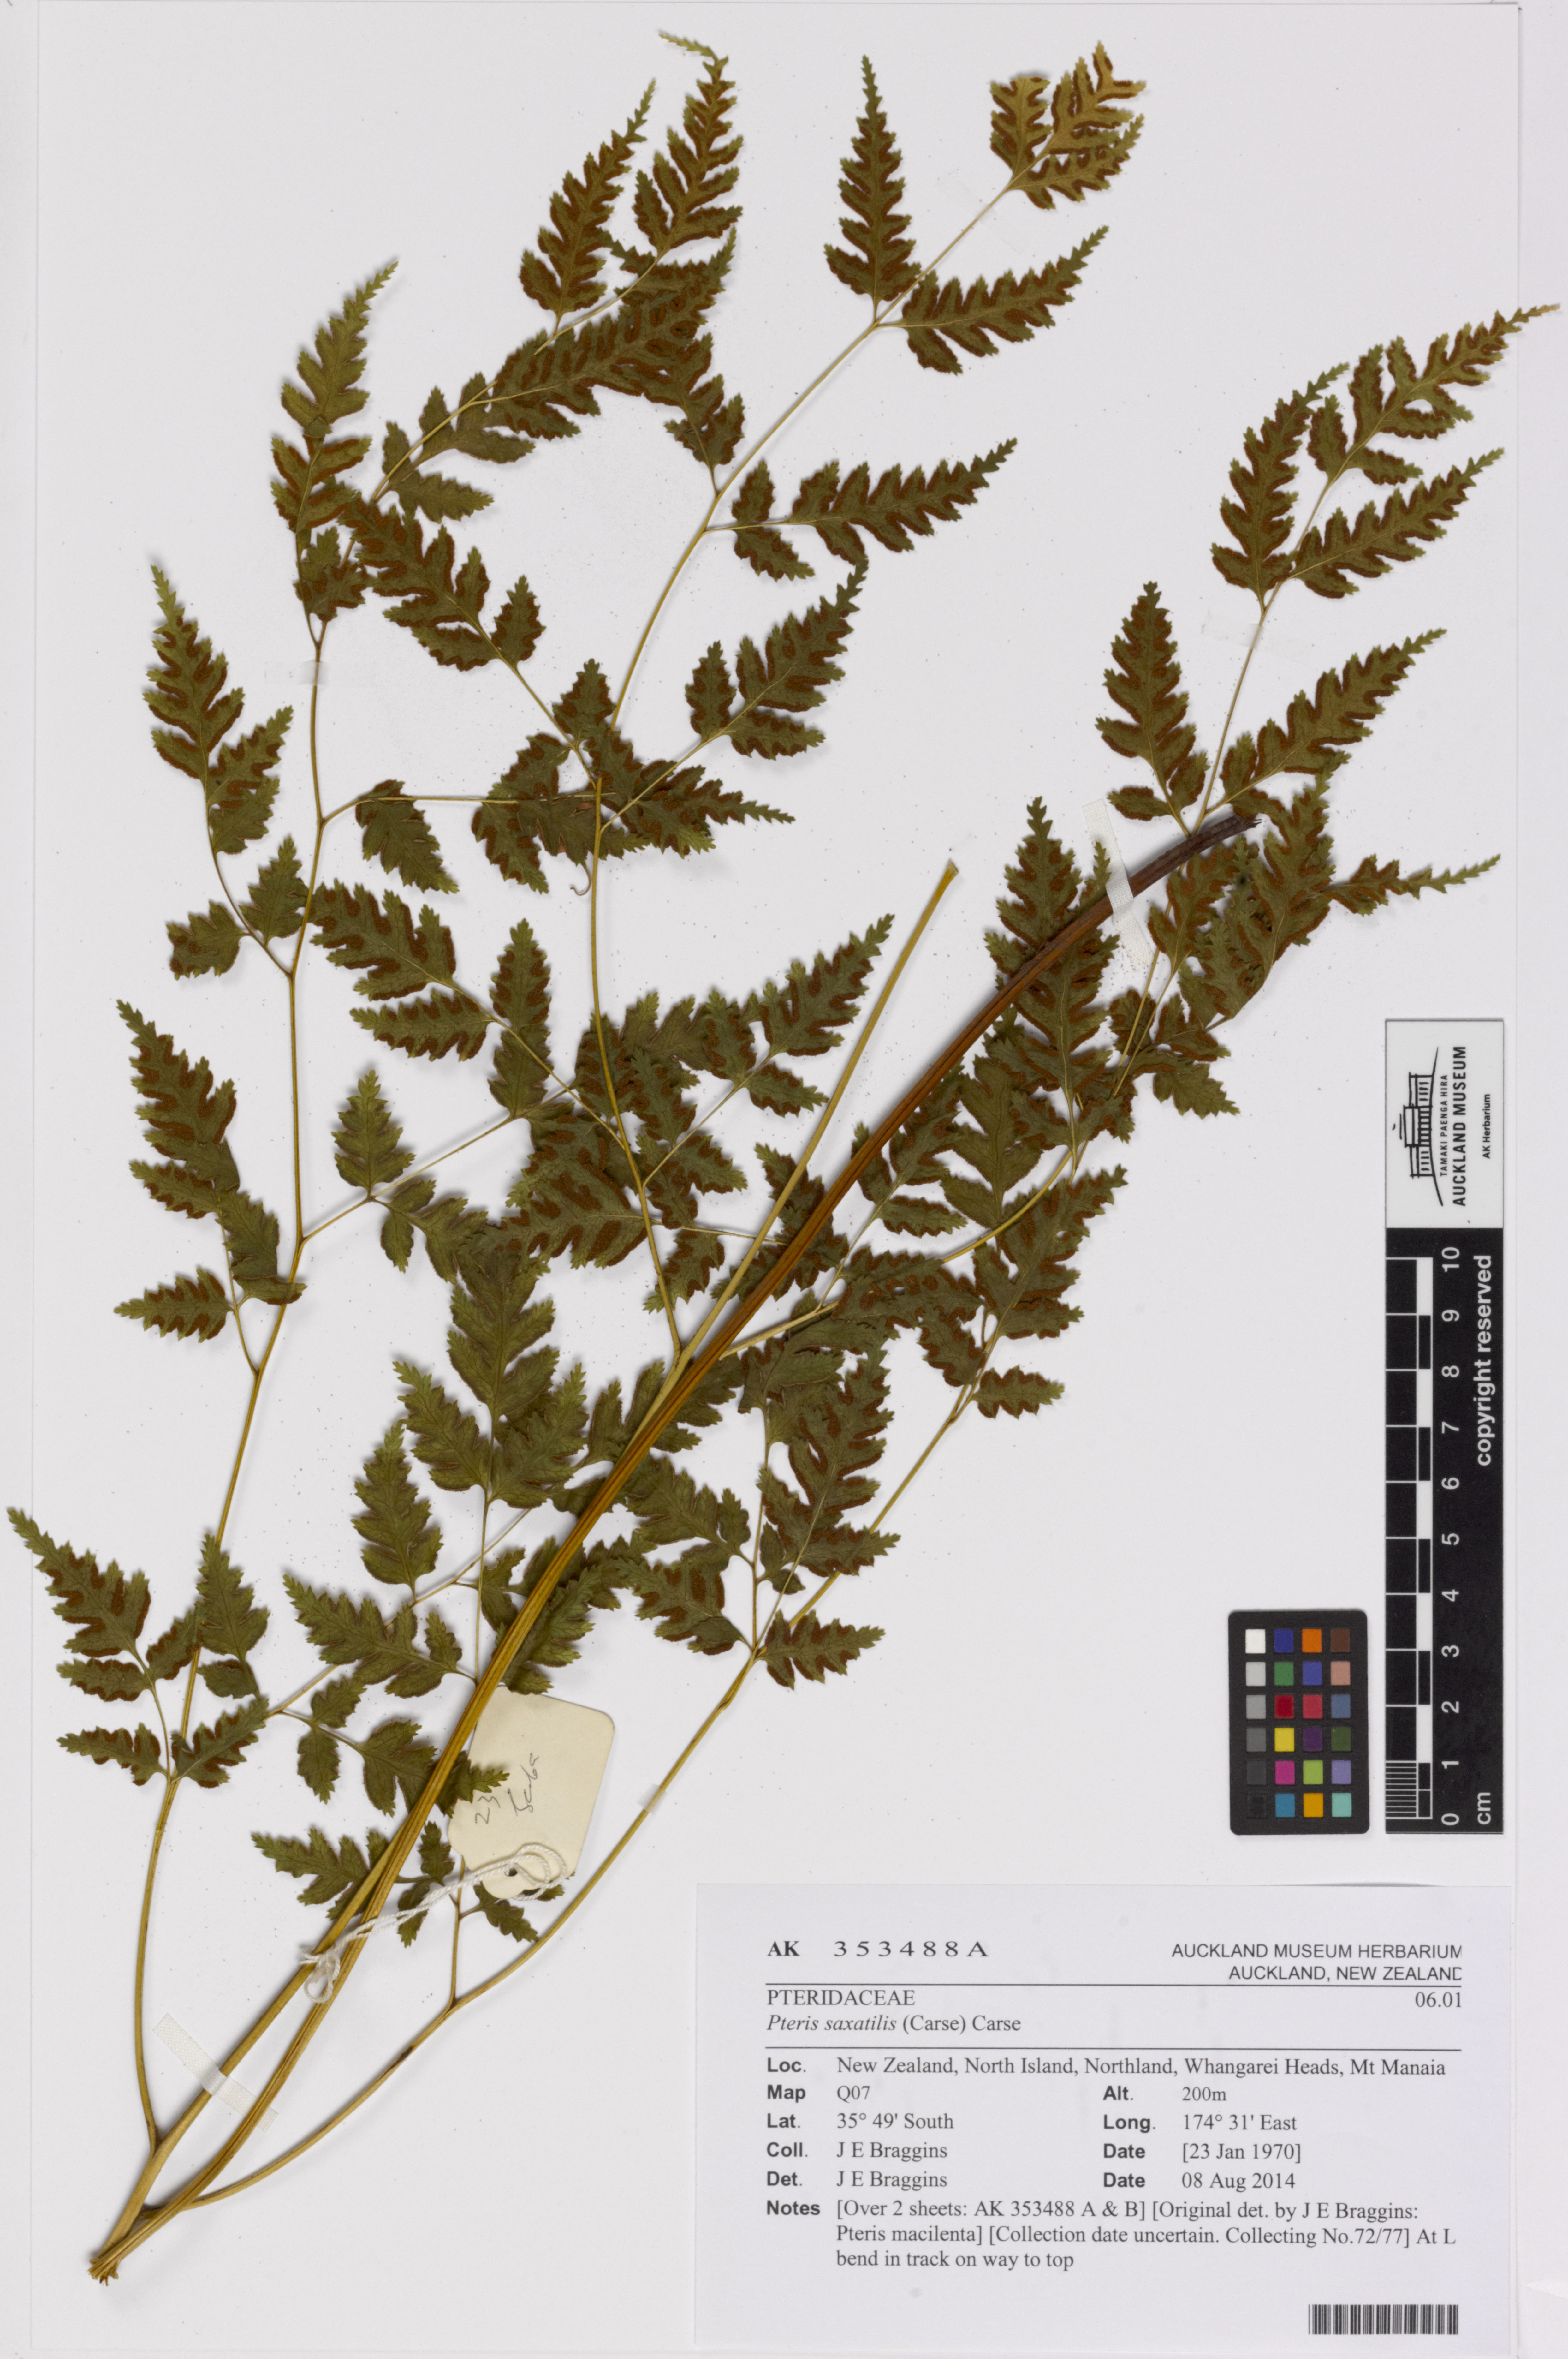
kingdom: Plantae
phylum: Tracheophyta
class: Polypodiopsida
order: Polypodiales
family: Pteridaceae
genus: Pteris
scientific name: Pteris
